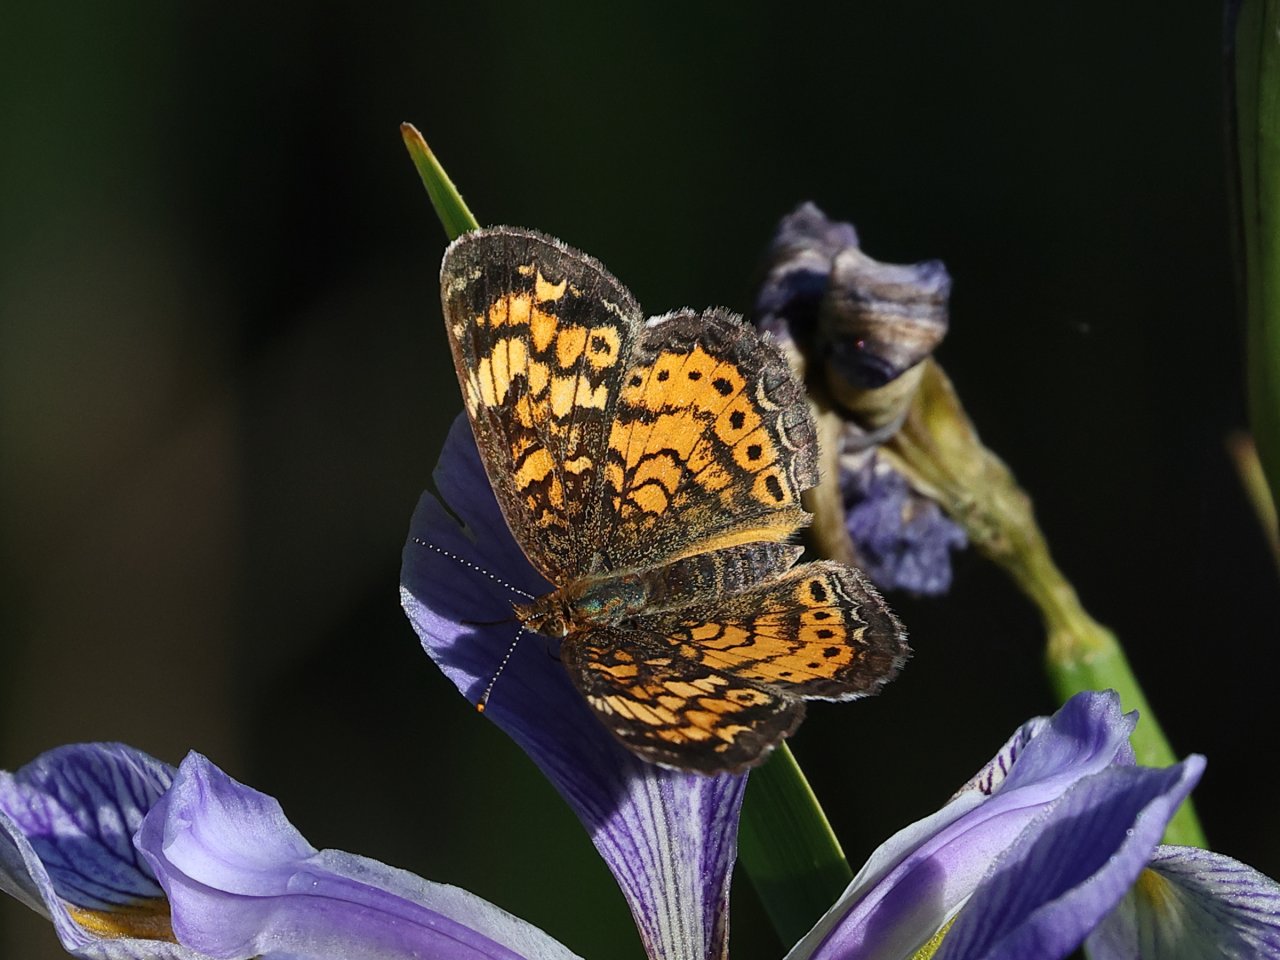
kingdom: Animalia
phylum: Arthropoda
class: Insecta
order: Lepidoptera
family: Nymphalidae
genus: Phyciodes
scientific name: Phyciodes tharos
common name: Pearl Crescent
